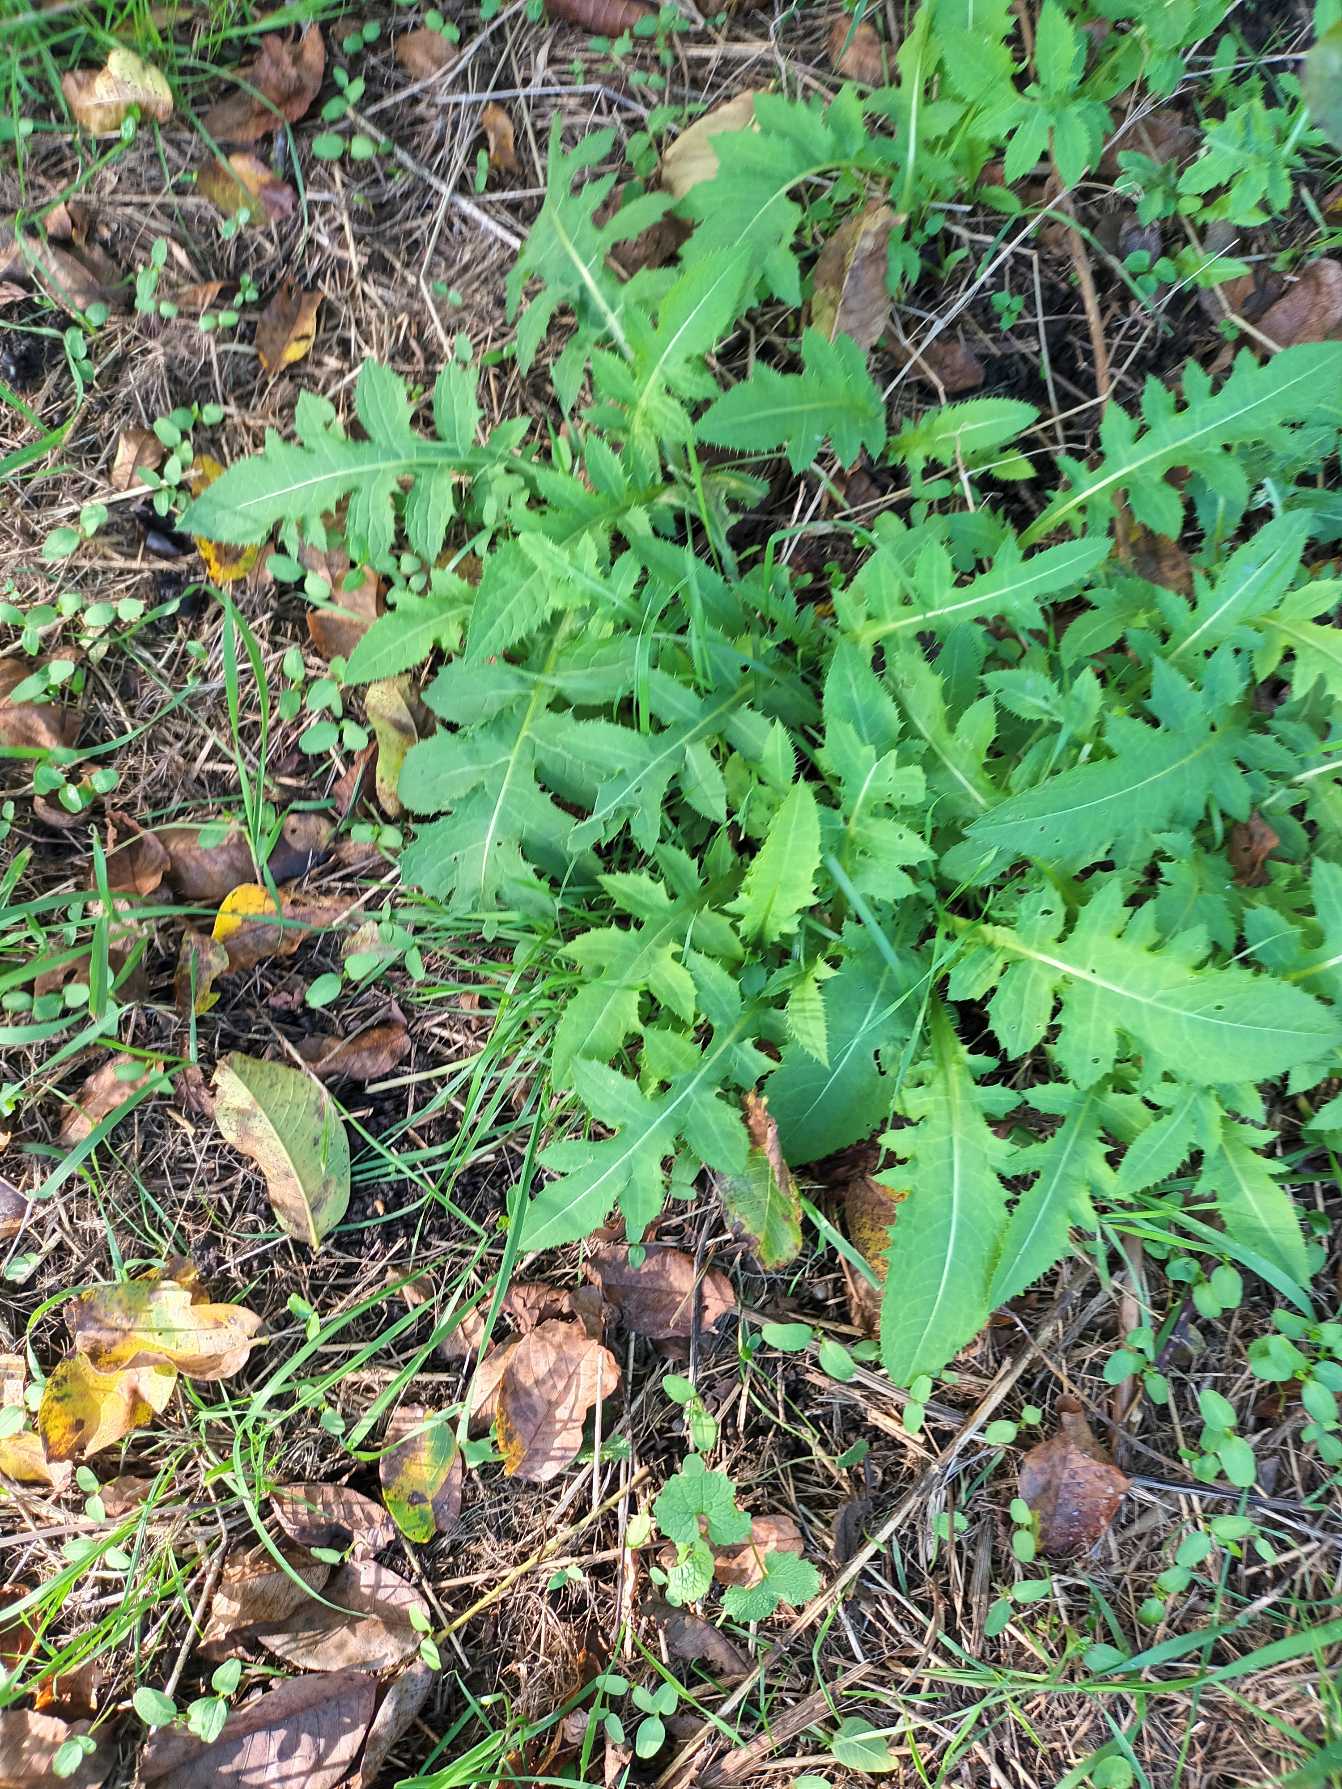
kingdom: Plantae
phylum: Tracheophyta
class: Magnoliopsida
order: Asterales
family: Asteraceae
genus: Cirsium
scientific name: Cirsium oleraceum
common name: Kål-tidsel
